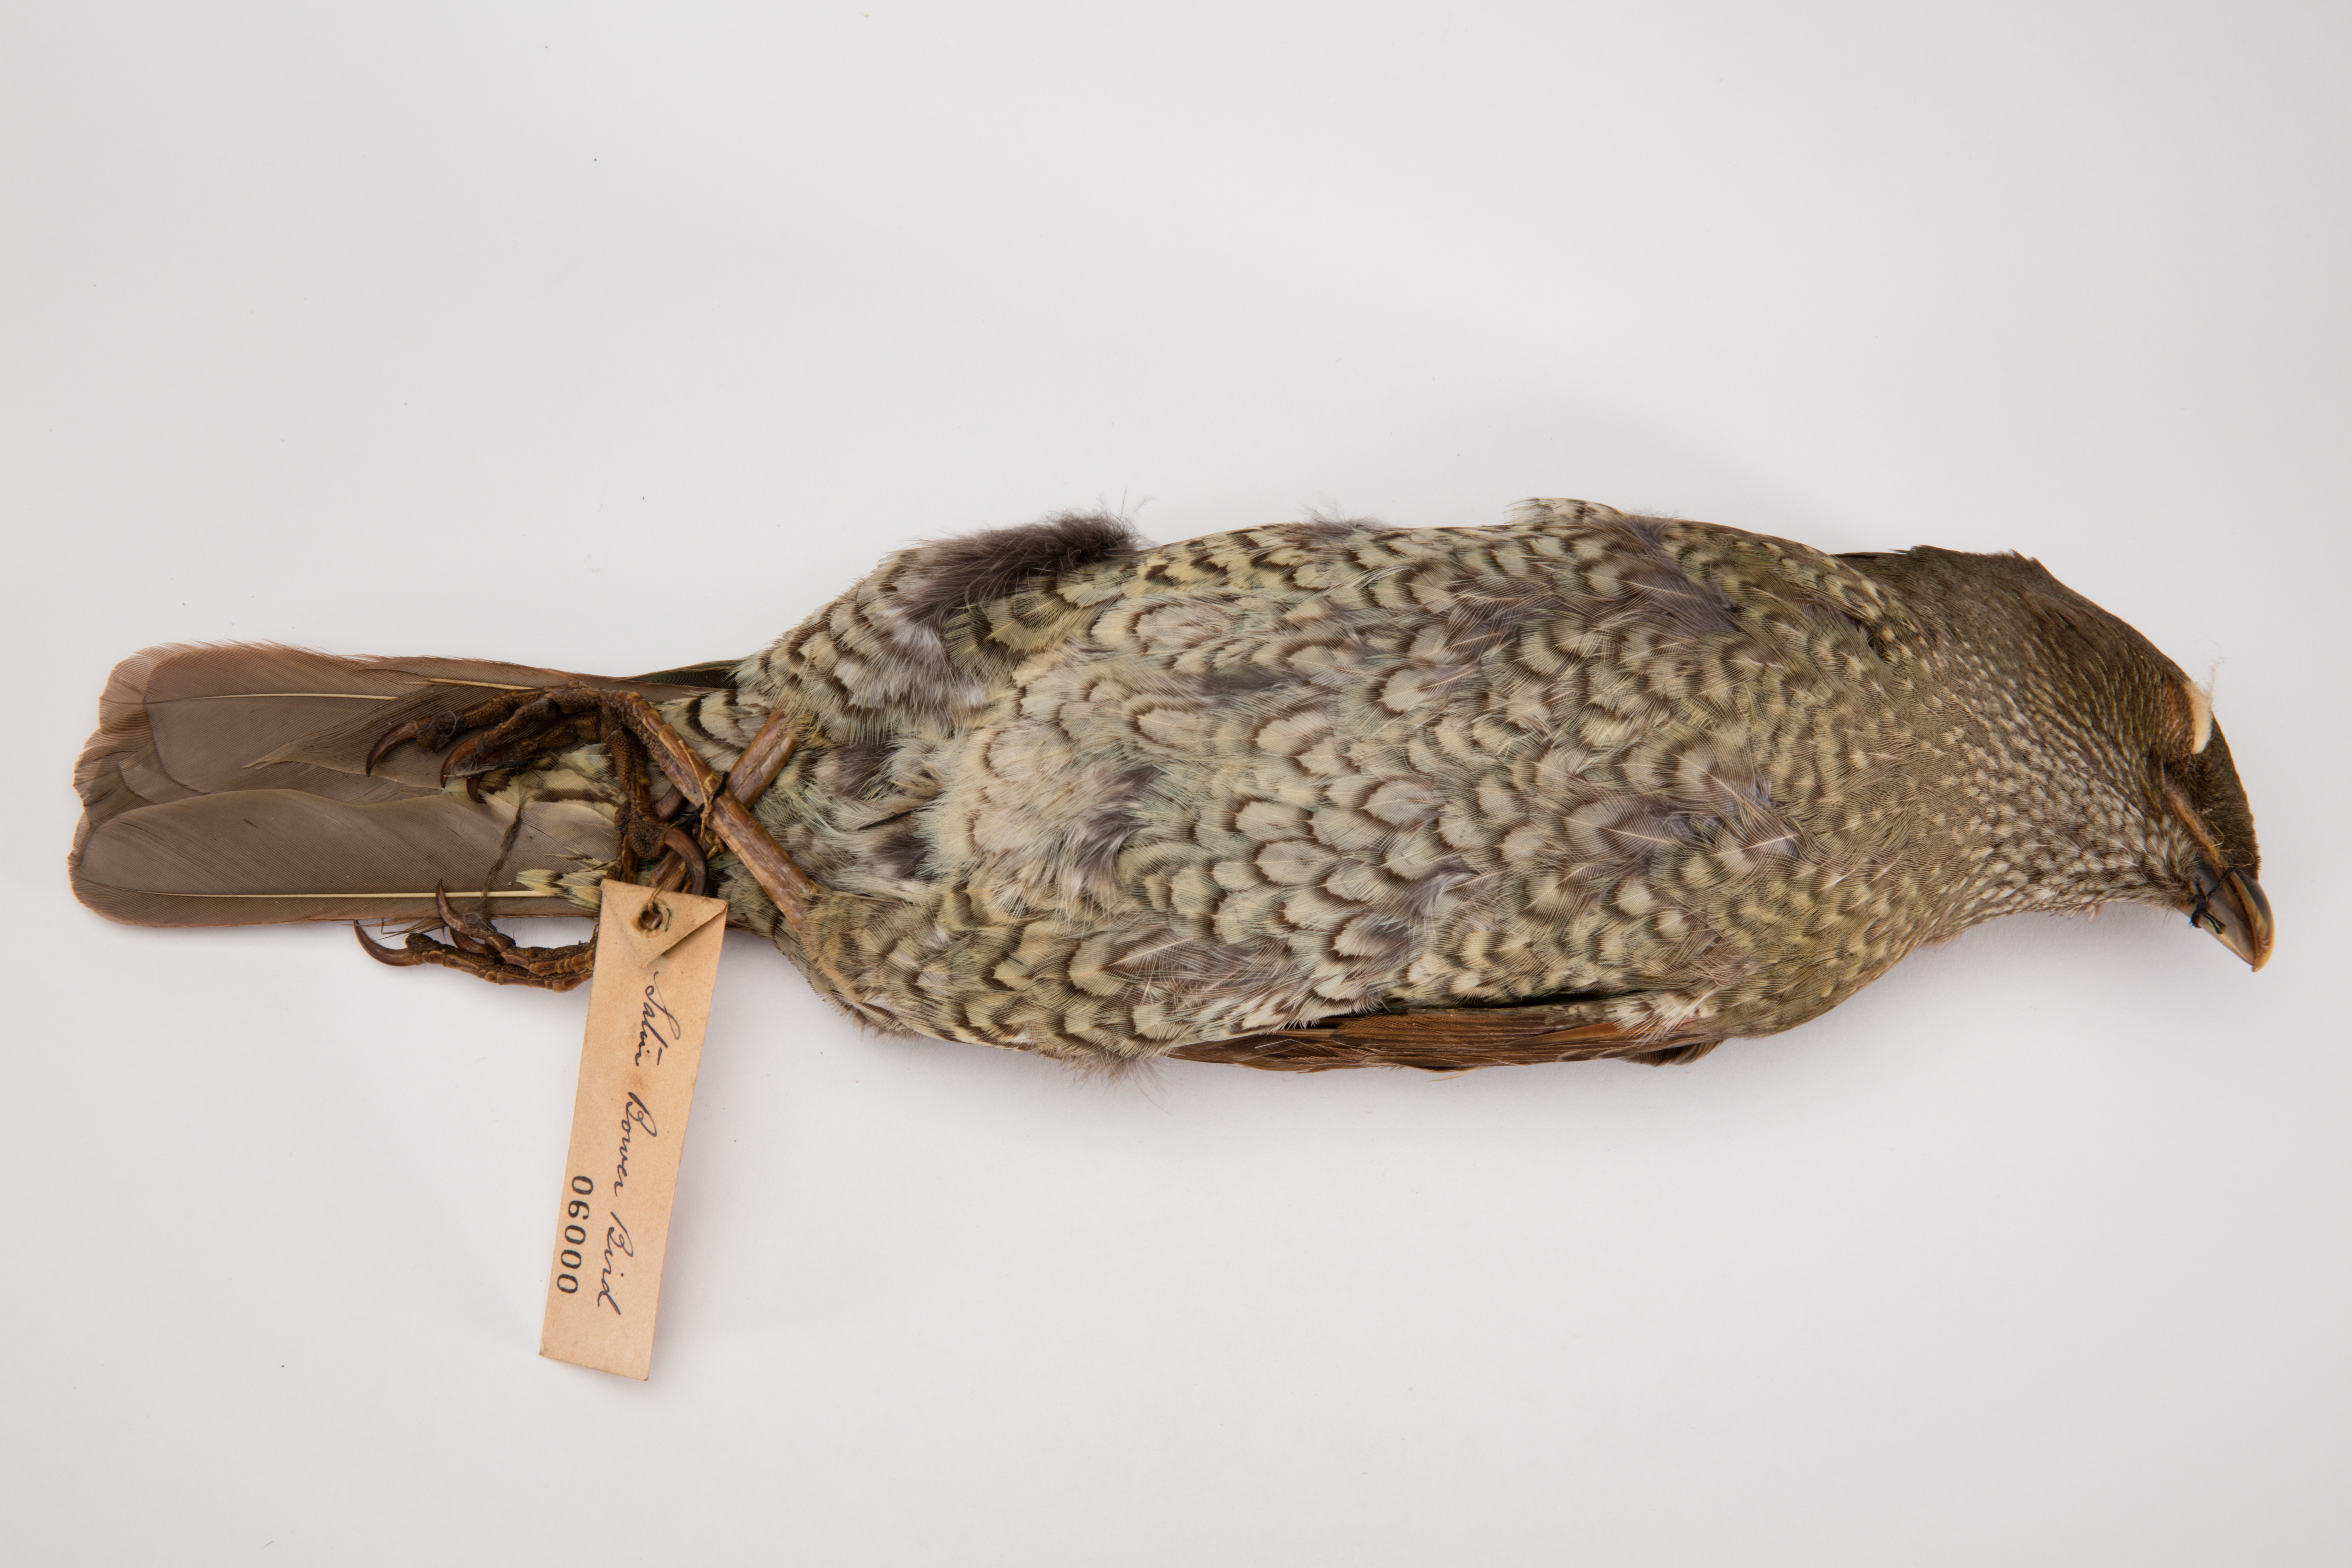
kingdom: Animalia
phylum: Chordata
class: Aves
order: Passeriformes
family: Ptilonorhynchidae
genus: Ptilonorhynchus
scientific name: Ptilonorhynchus violaceus
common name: Satin bowerbird
